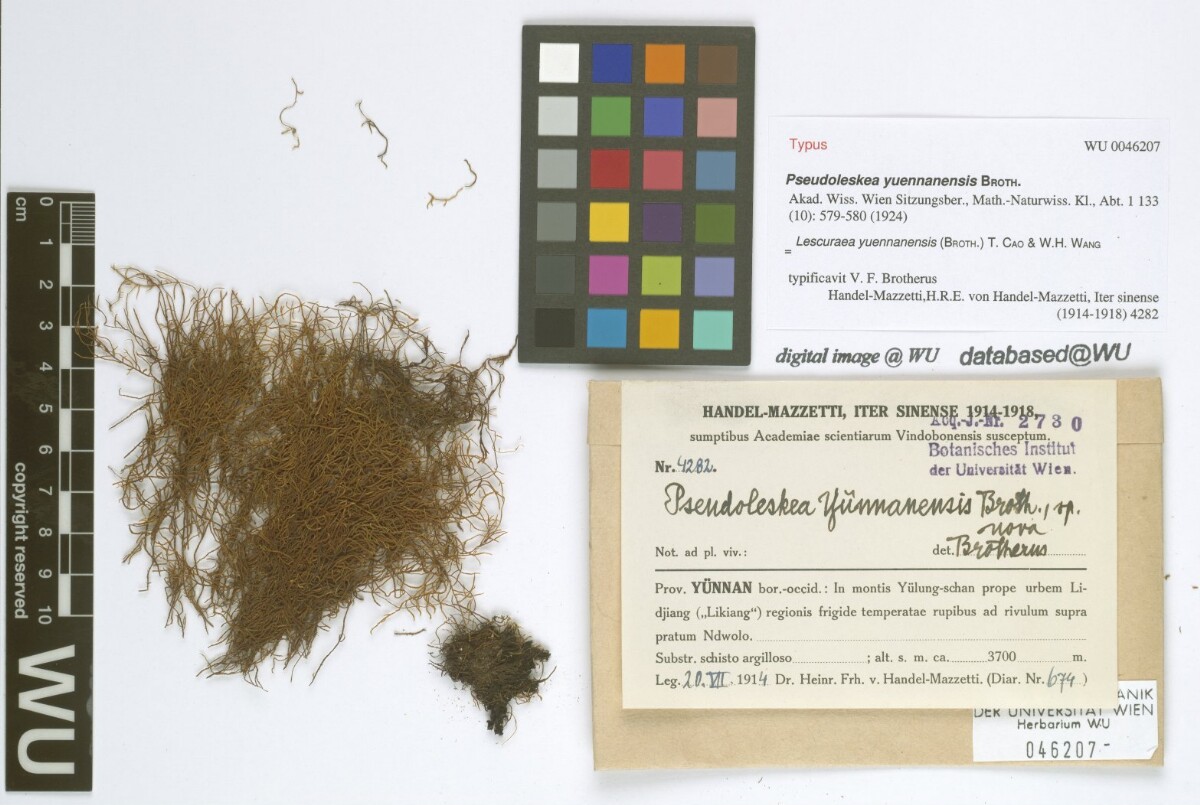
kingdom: Plantae
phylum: Bryophyta
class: Bryopsida
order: Hypnales
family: Pseudoleskeaceae
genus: Lescuraea
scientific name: Lescuraea yuennanensis
